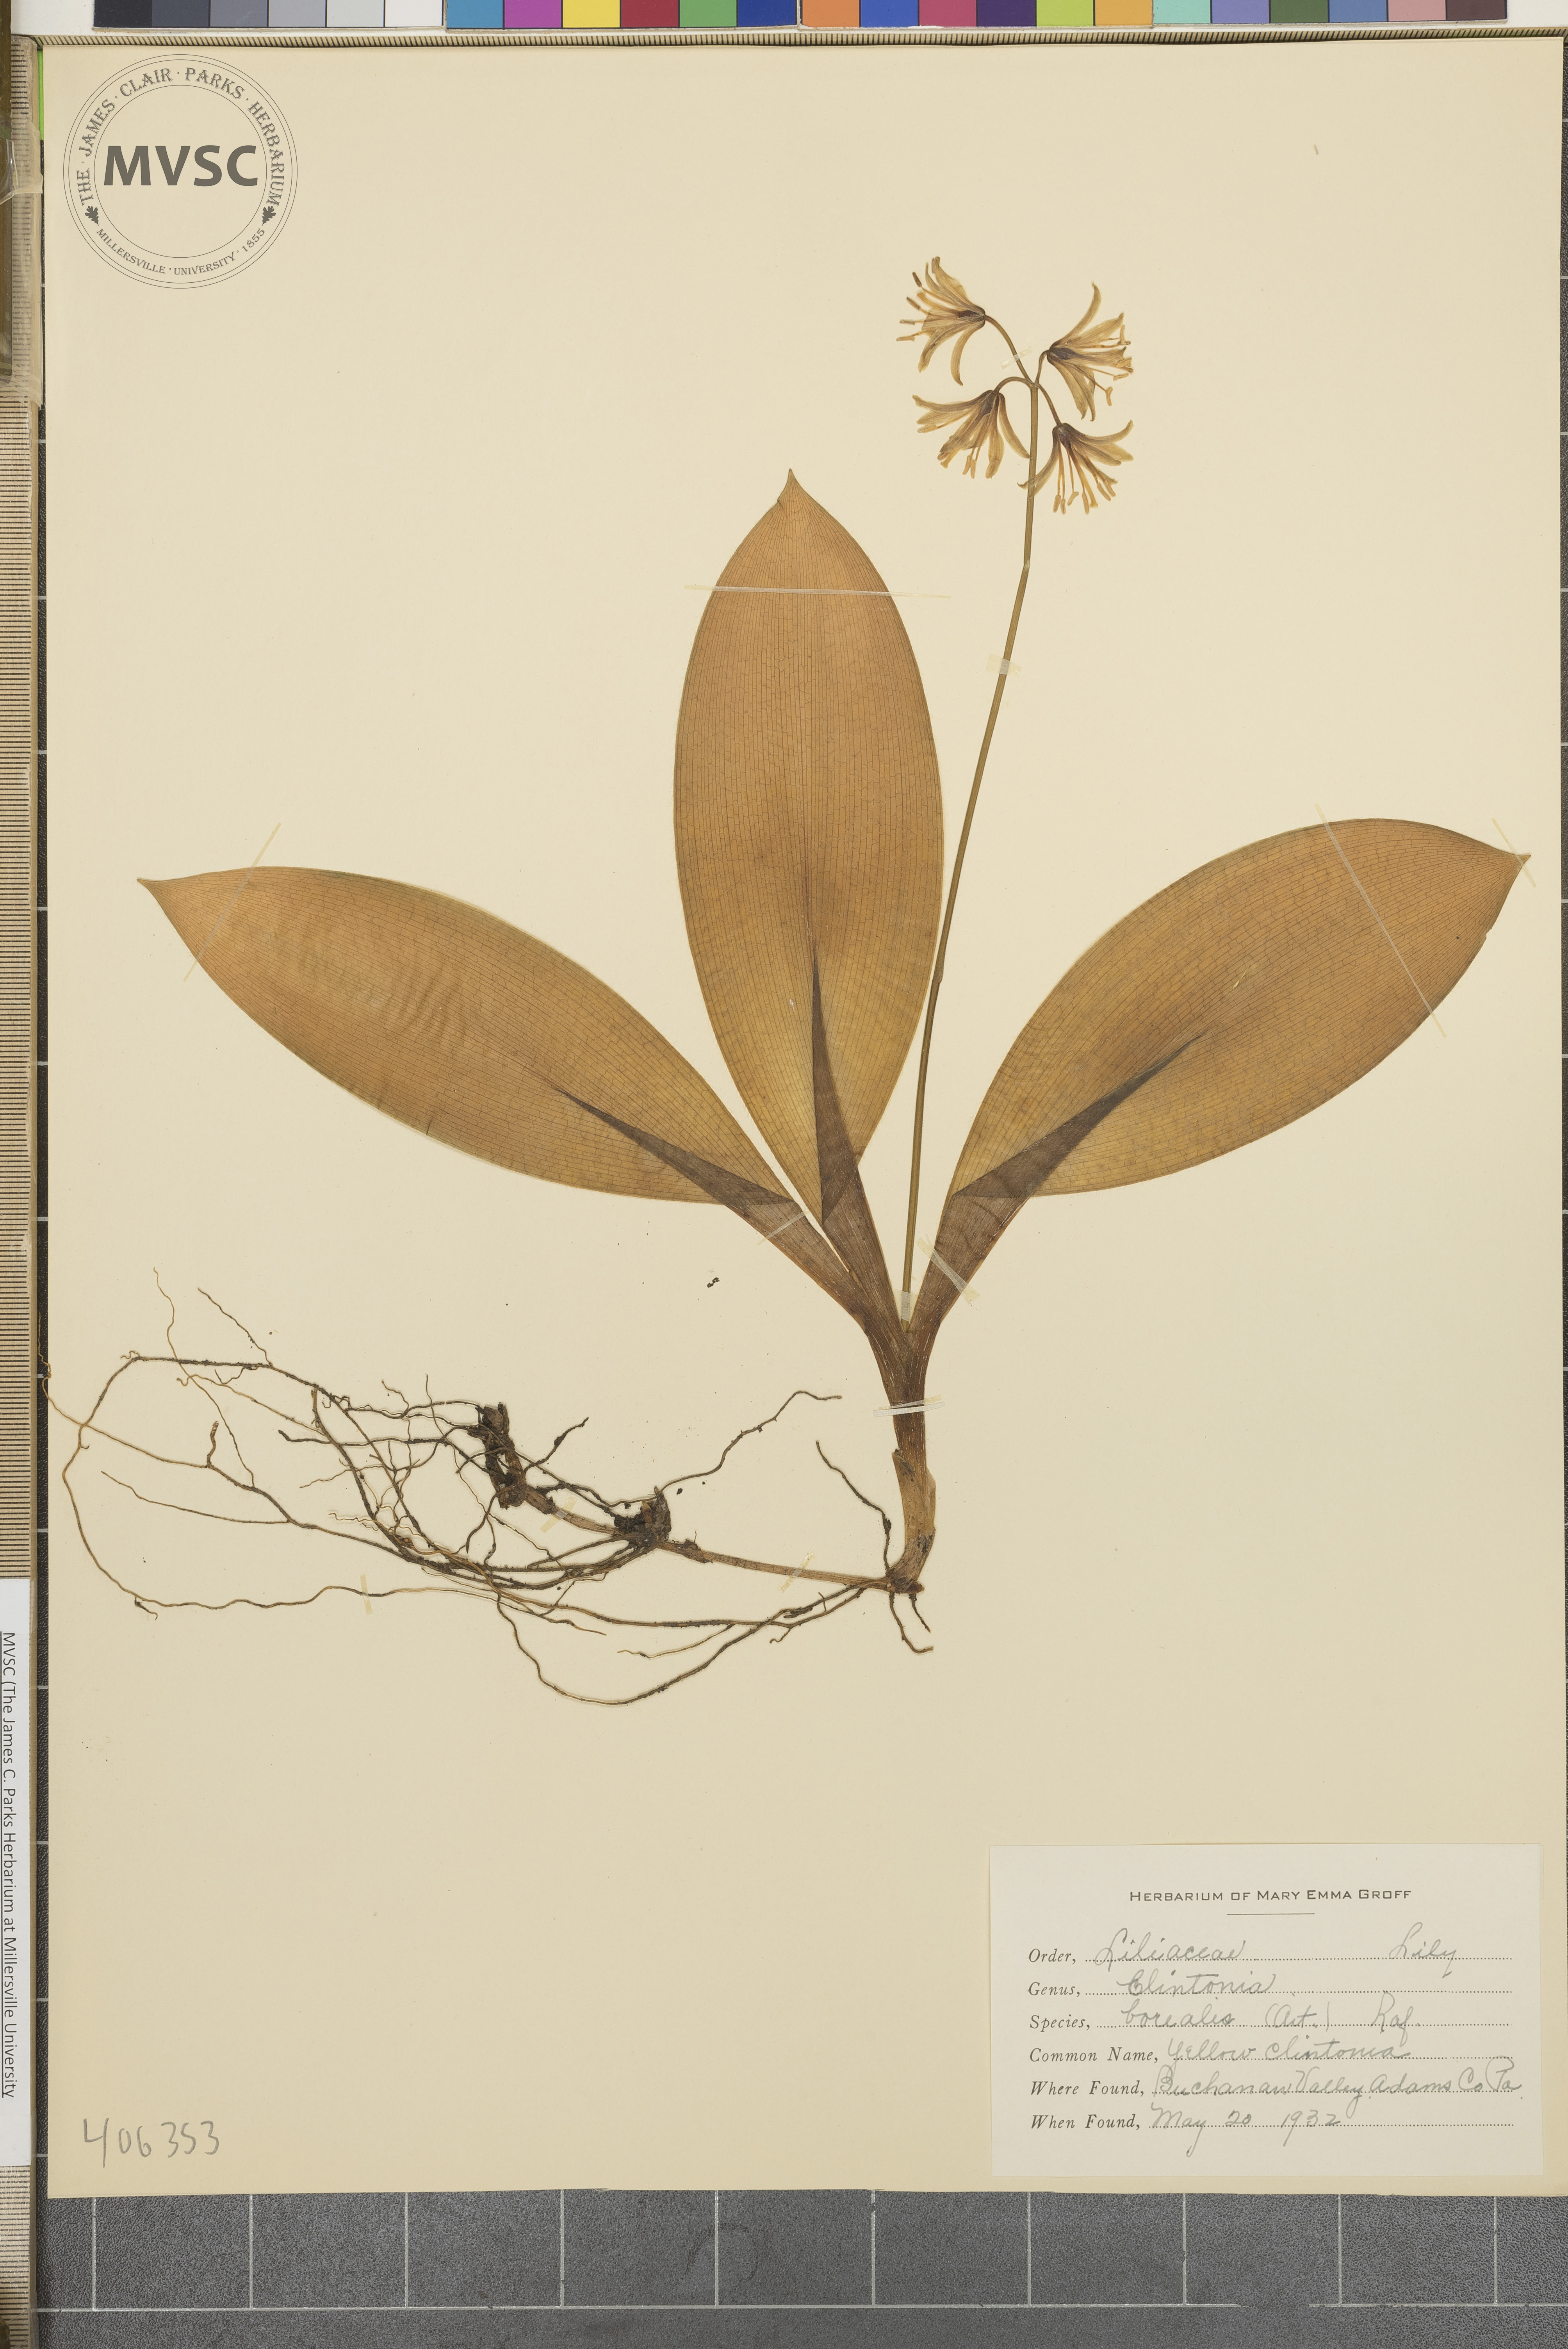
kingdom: Plantae
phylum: Tracheophyta
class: Liliopsida
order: Liliales
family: Liliaceae
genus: Clintonia
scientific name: Clintonia borealis
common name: Yellow clintonia
